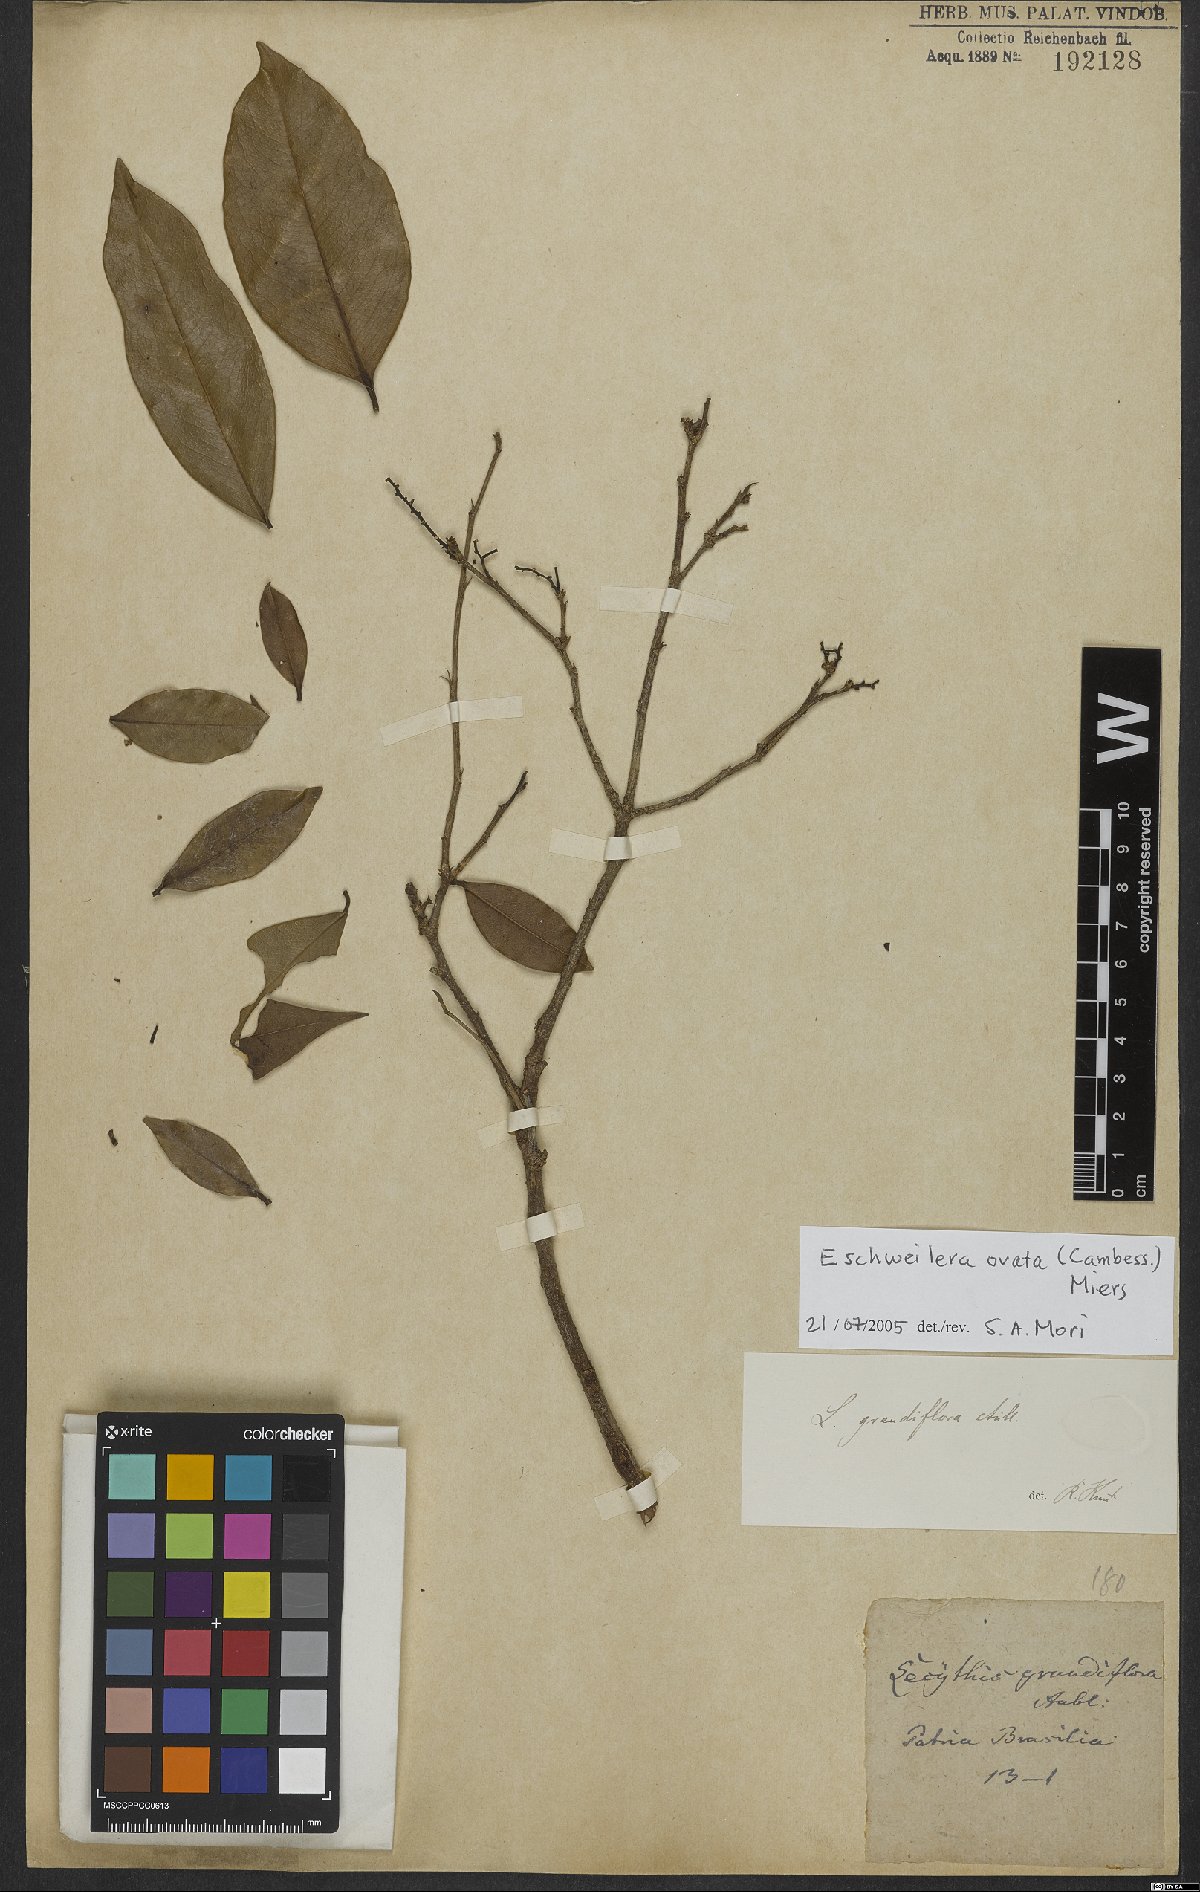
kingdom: Plantae
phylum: Tracheophyta
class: Magnoliopsida
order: Ericales
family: Lecythidaceae
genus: Eschweilera
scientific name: Eschweilera ovata
